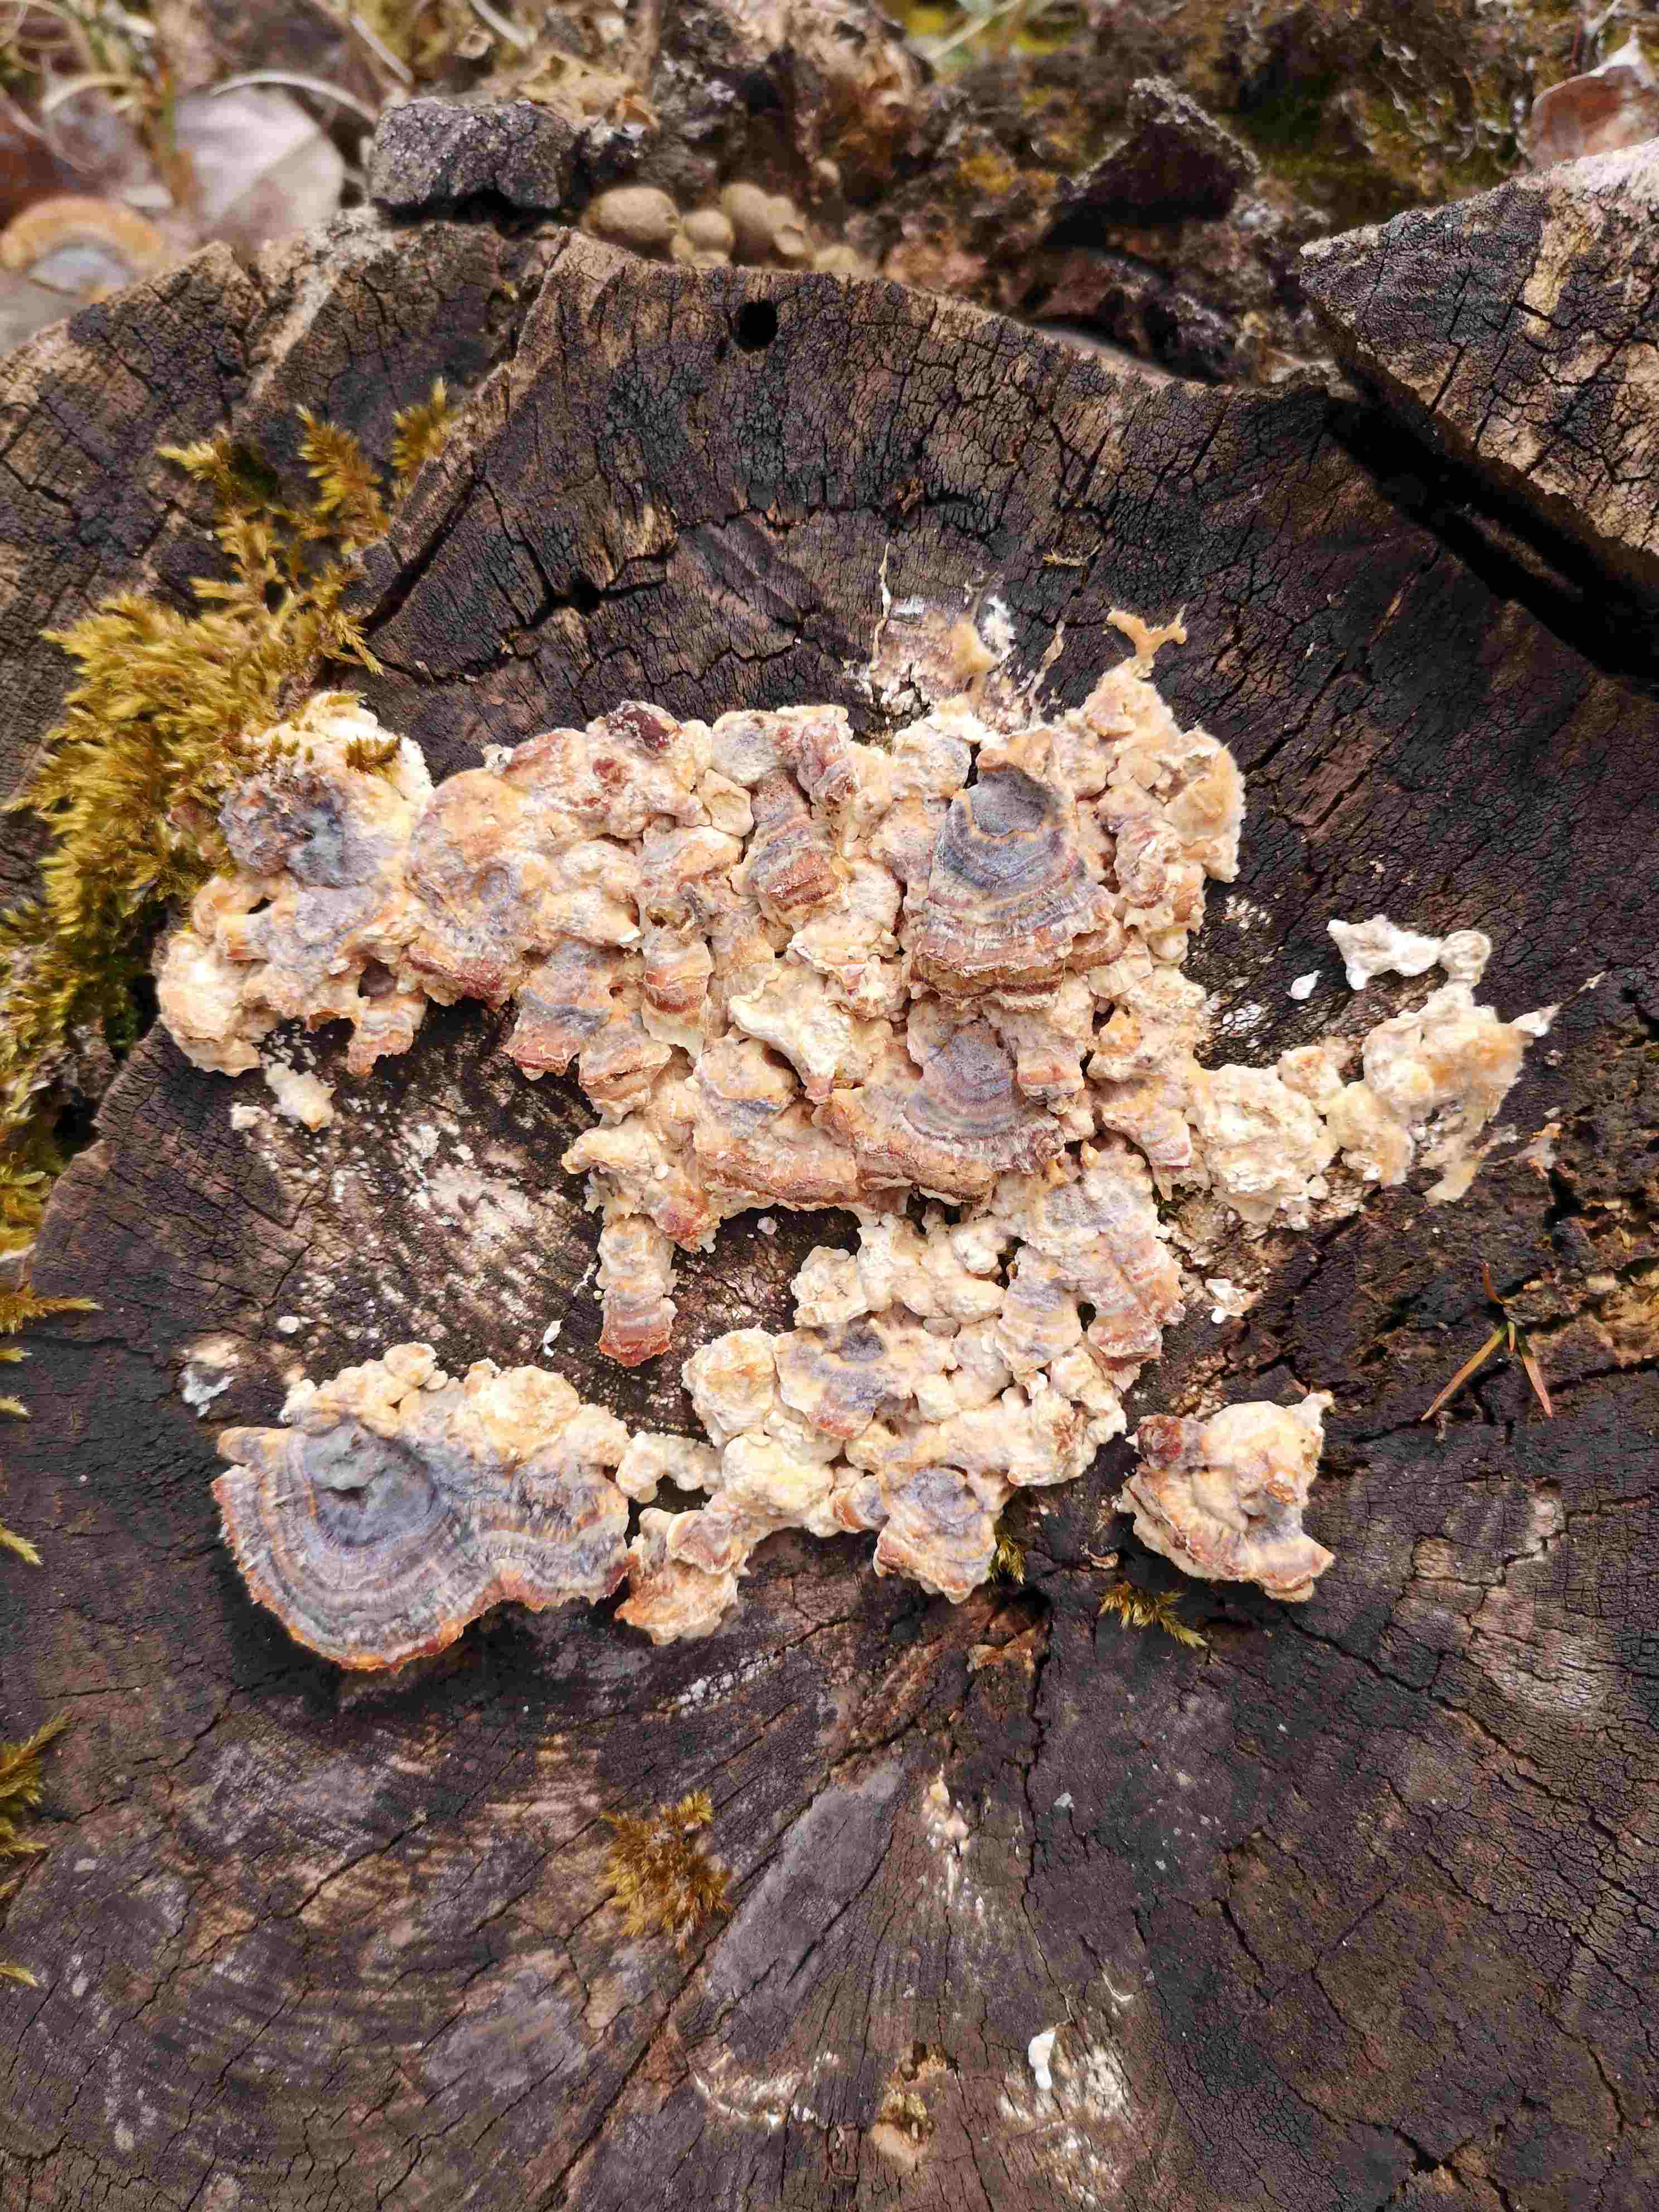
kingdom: Fungi
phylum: Basidiomycota
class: Agaricomycetes
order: Polyporales
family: Polyporaceae
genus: Trametes
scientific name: Trametes versicolor
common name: broget læderporesvamp
